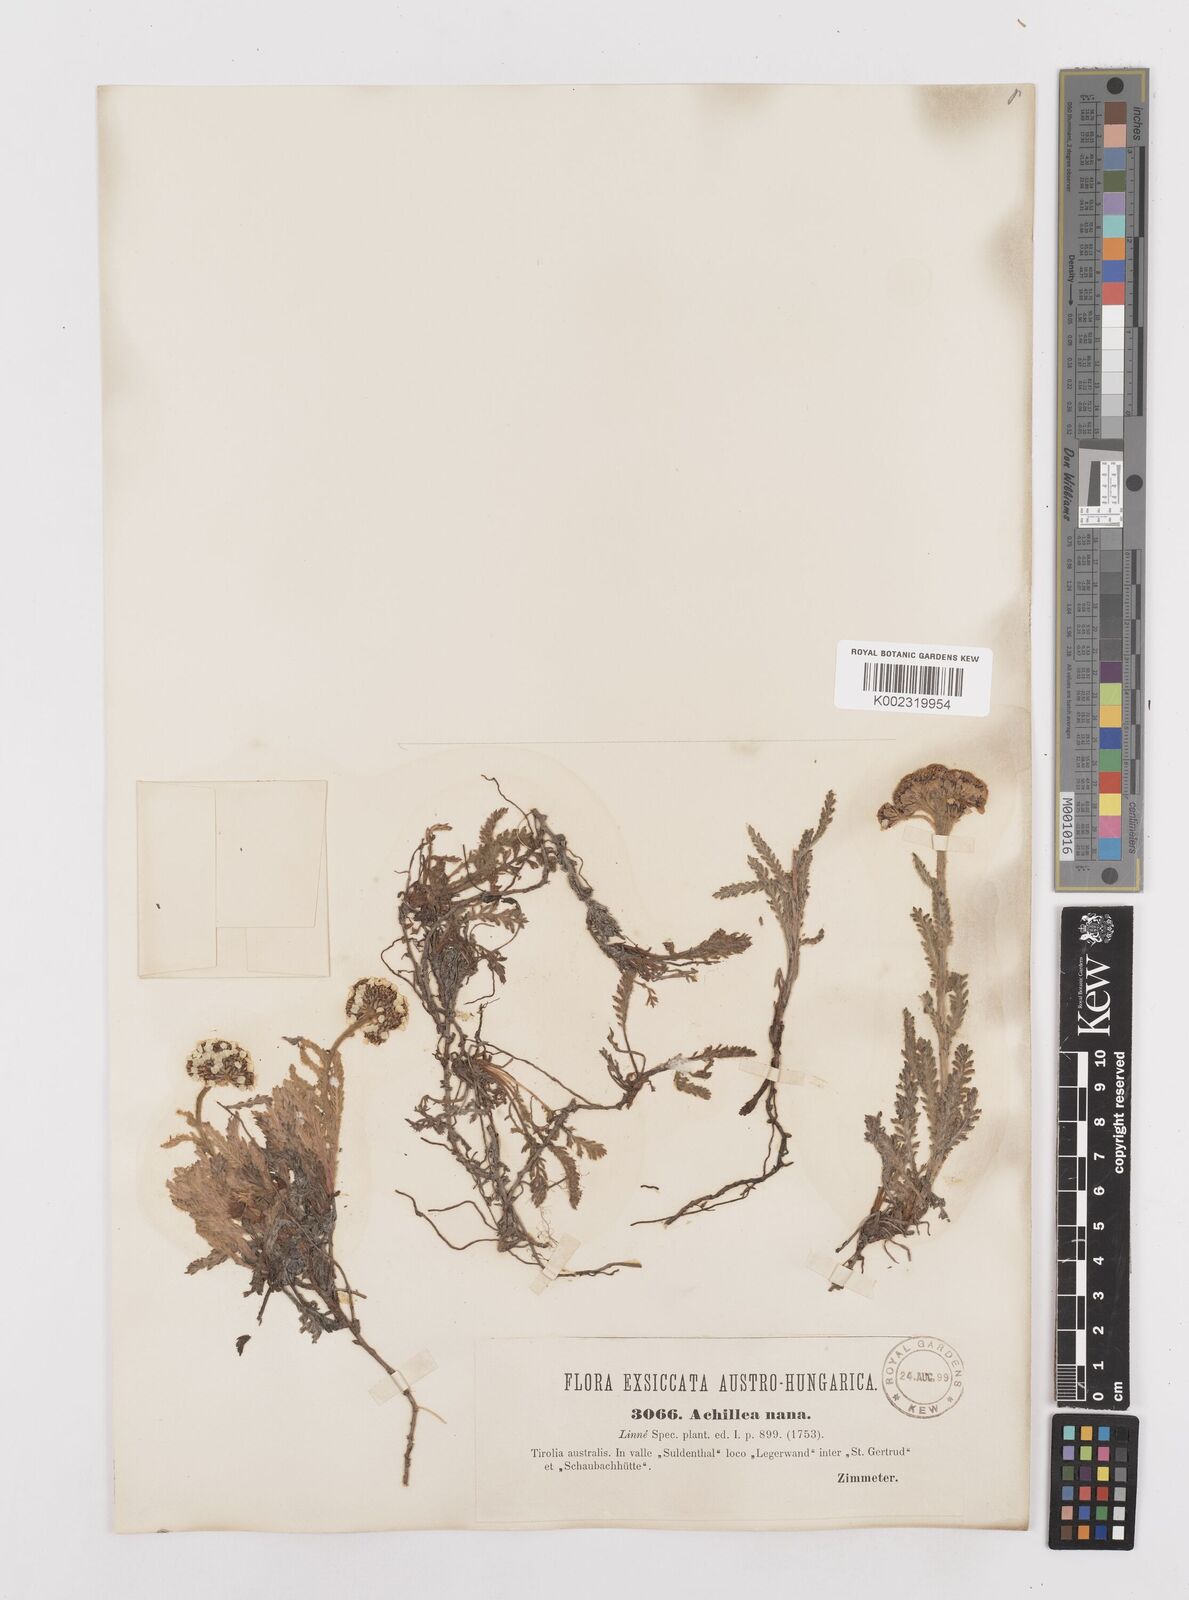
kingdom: Plantae
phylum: Tracheophyta
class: Magnoliopsida
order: Asterales
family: Asteraceae
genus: Achillea
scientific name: Achillea nana
